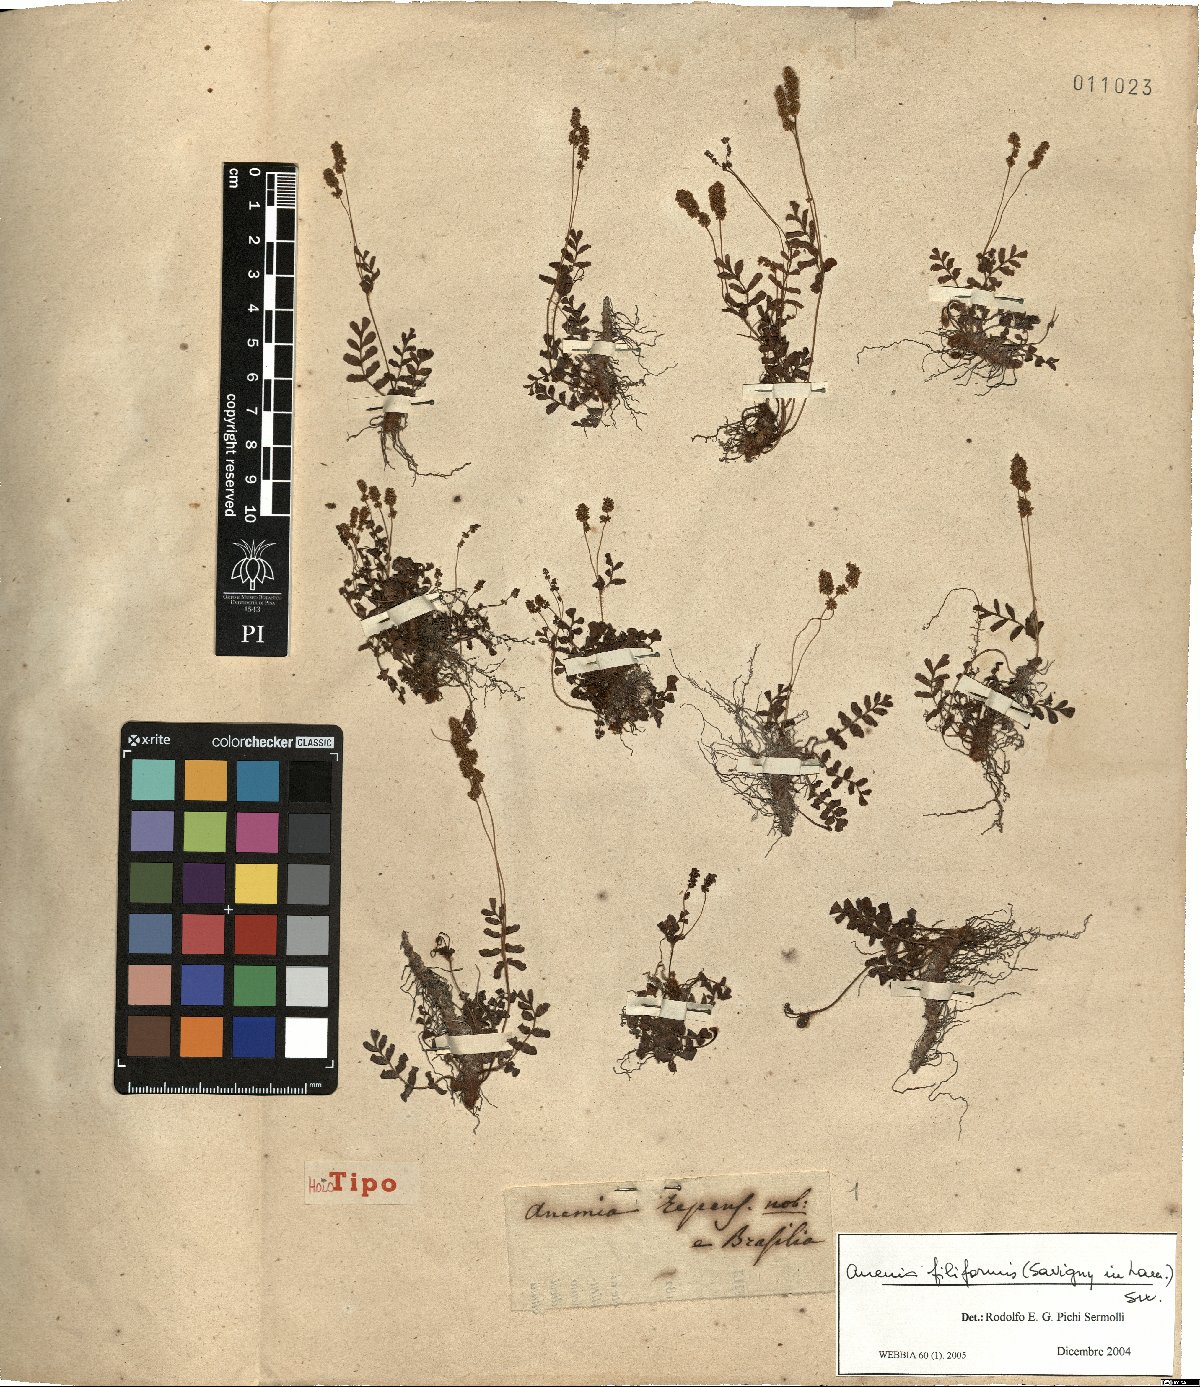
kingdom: Plantae
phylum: Tracheophyta
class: Polypodiopsida
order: Schizaeales
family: Anemiaceae
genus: Anemia
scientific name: Anemia hirsuta
